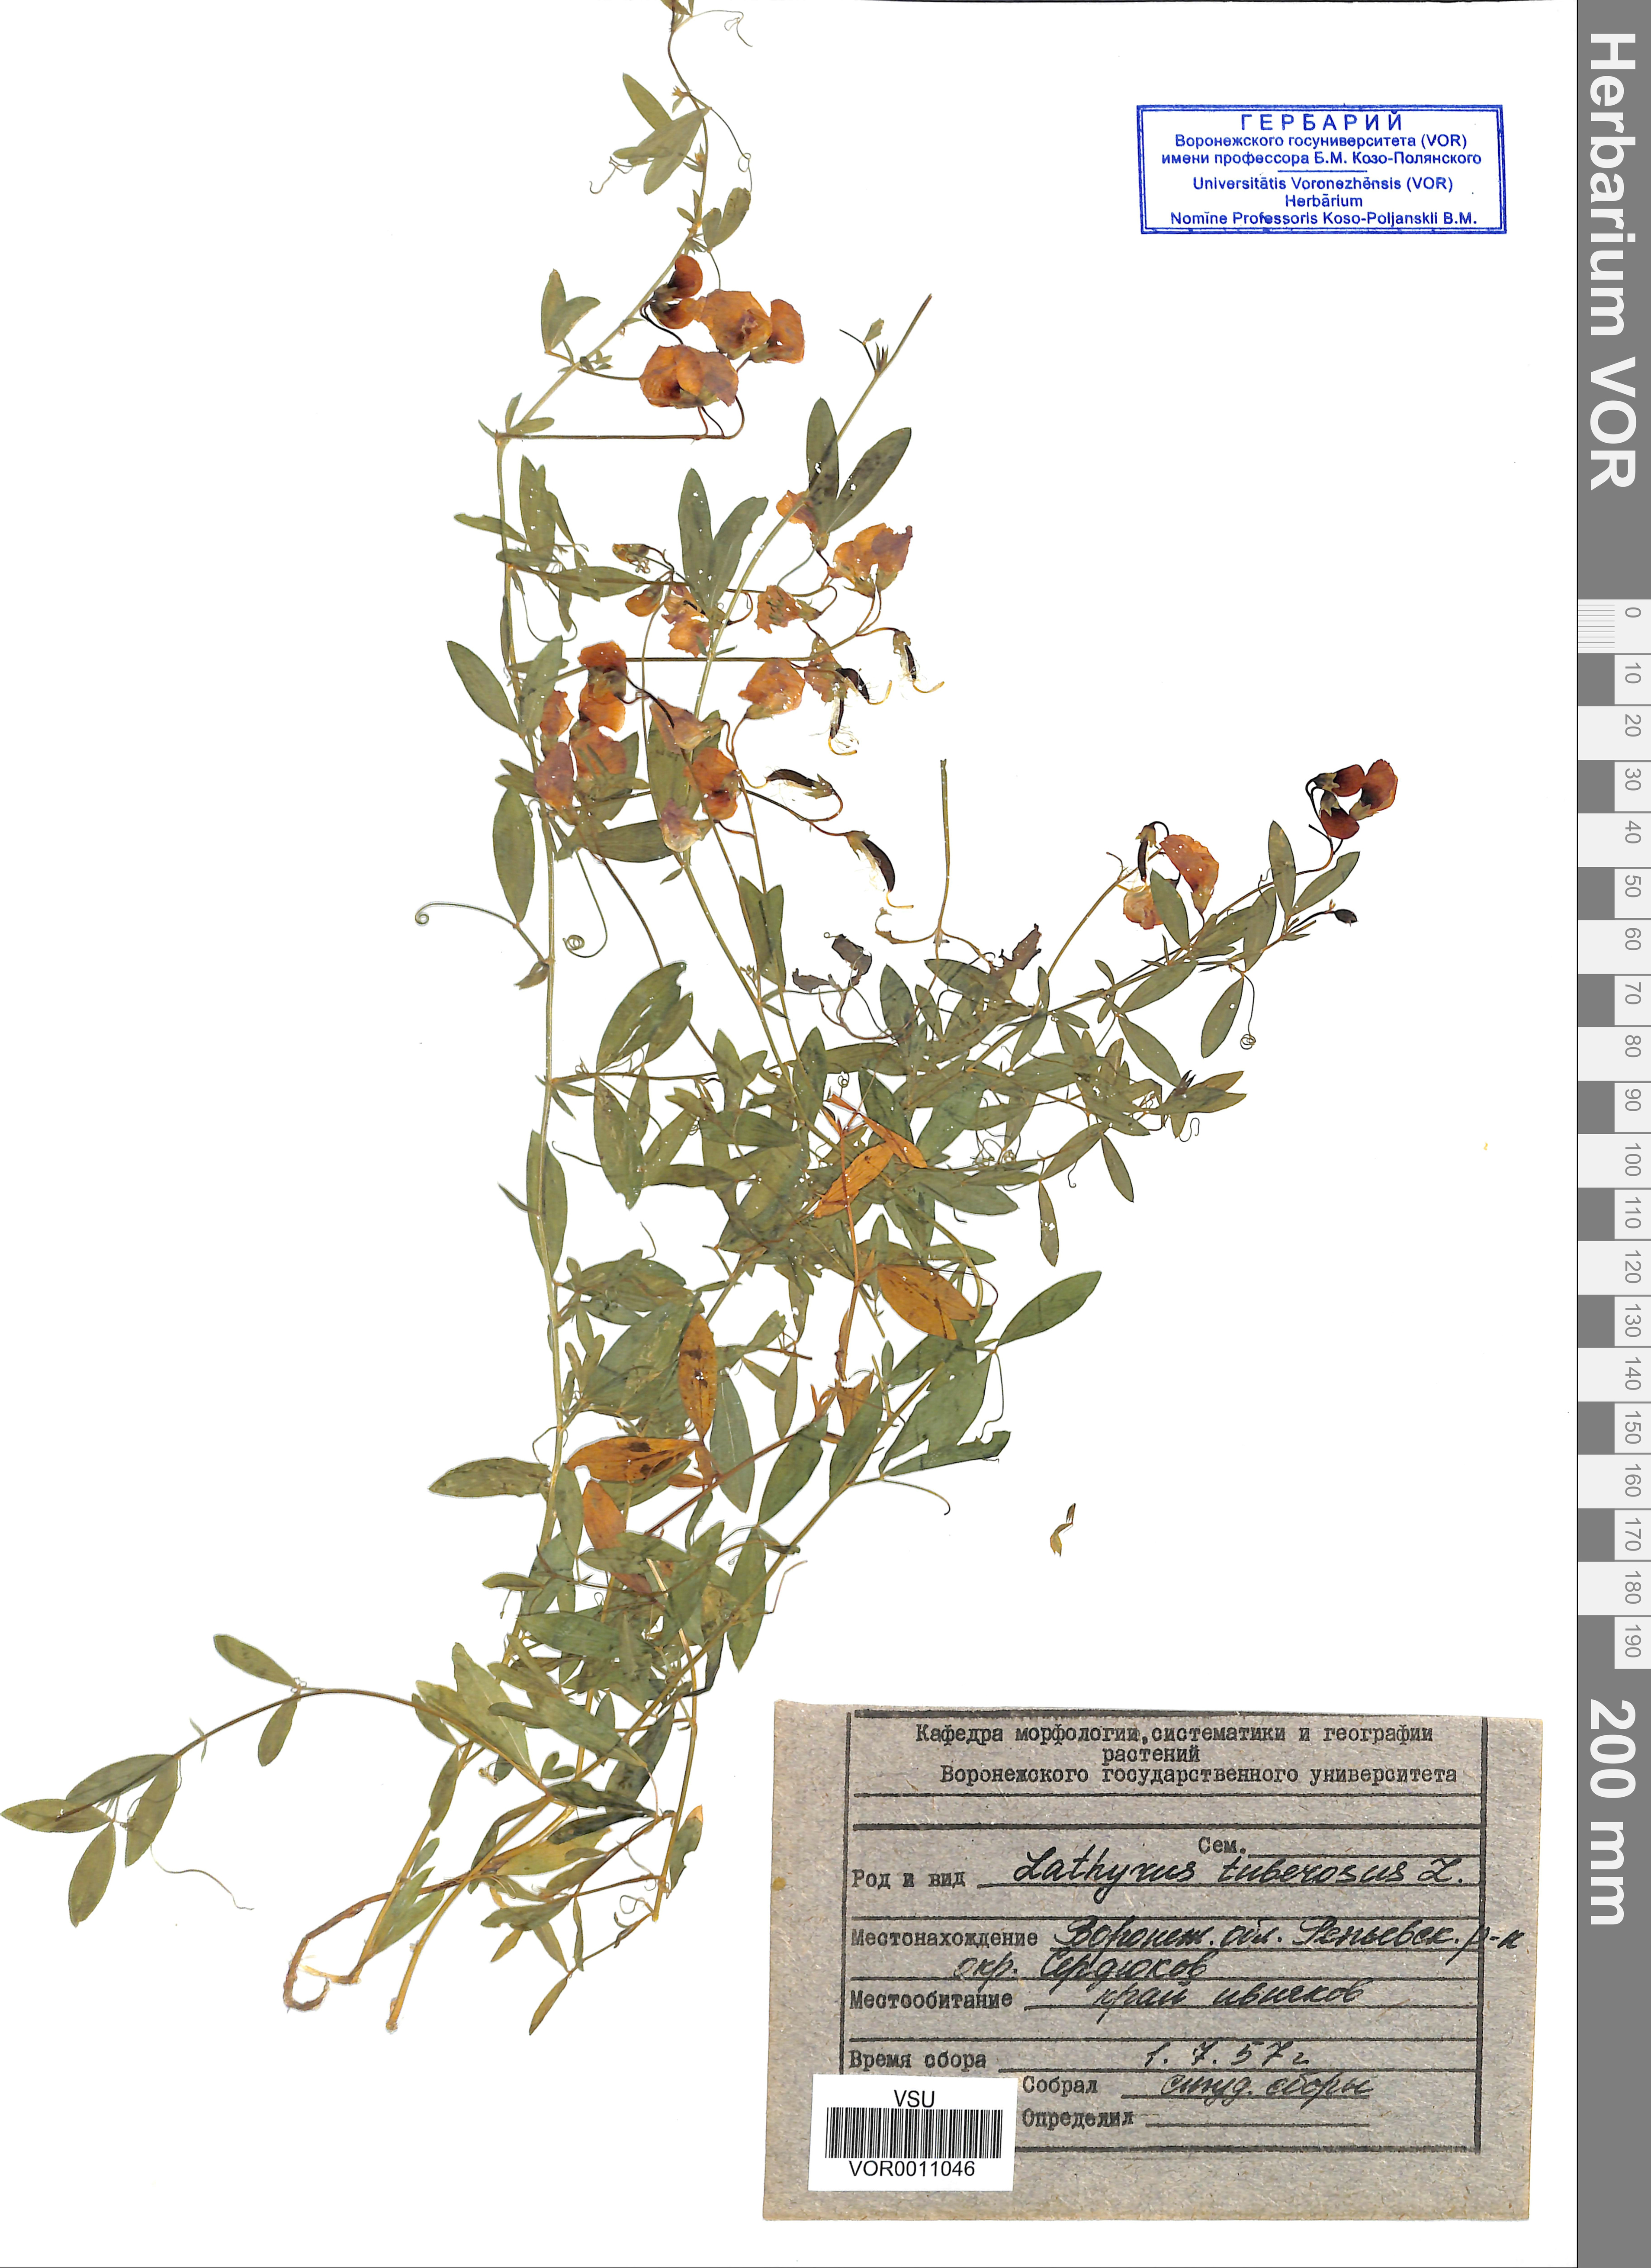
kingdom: Plantae
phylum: Tracheophyta
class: Magnoliopsida
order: Fabales
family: Fabaceae
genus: Lathyrus
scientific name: Lathyrus tuberosus
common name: Tuberous pea
